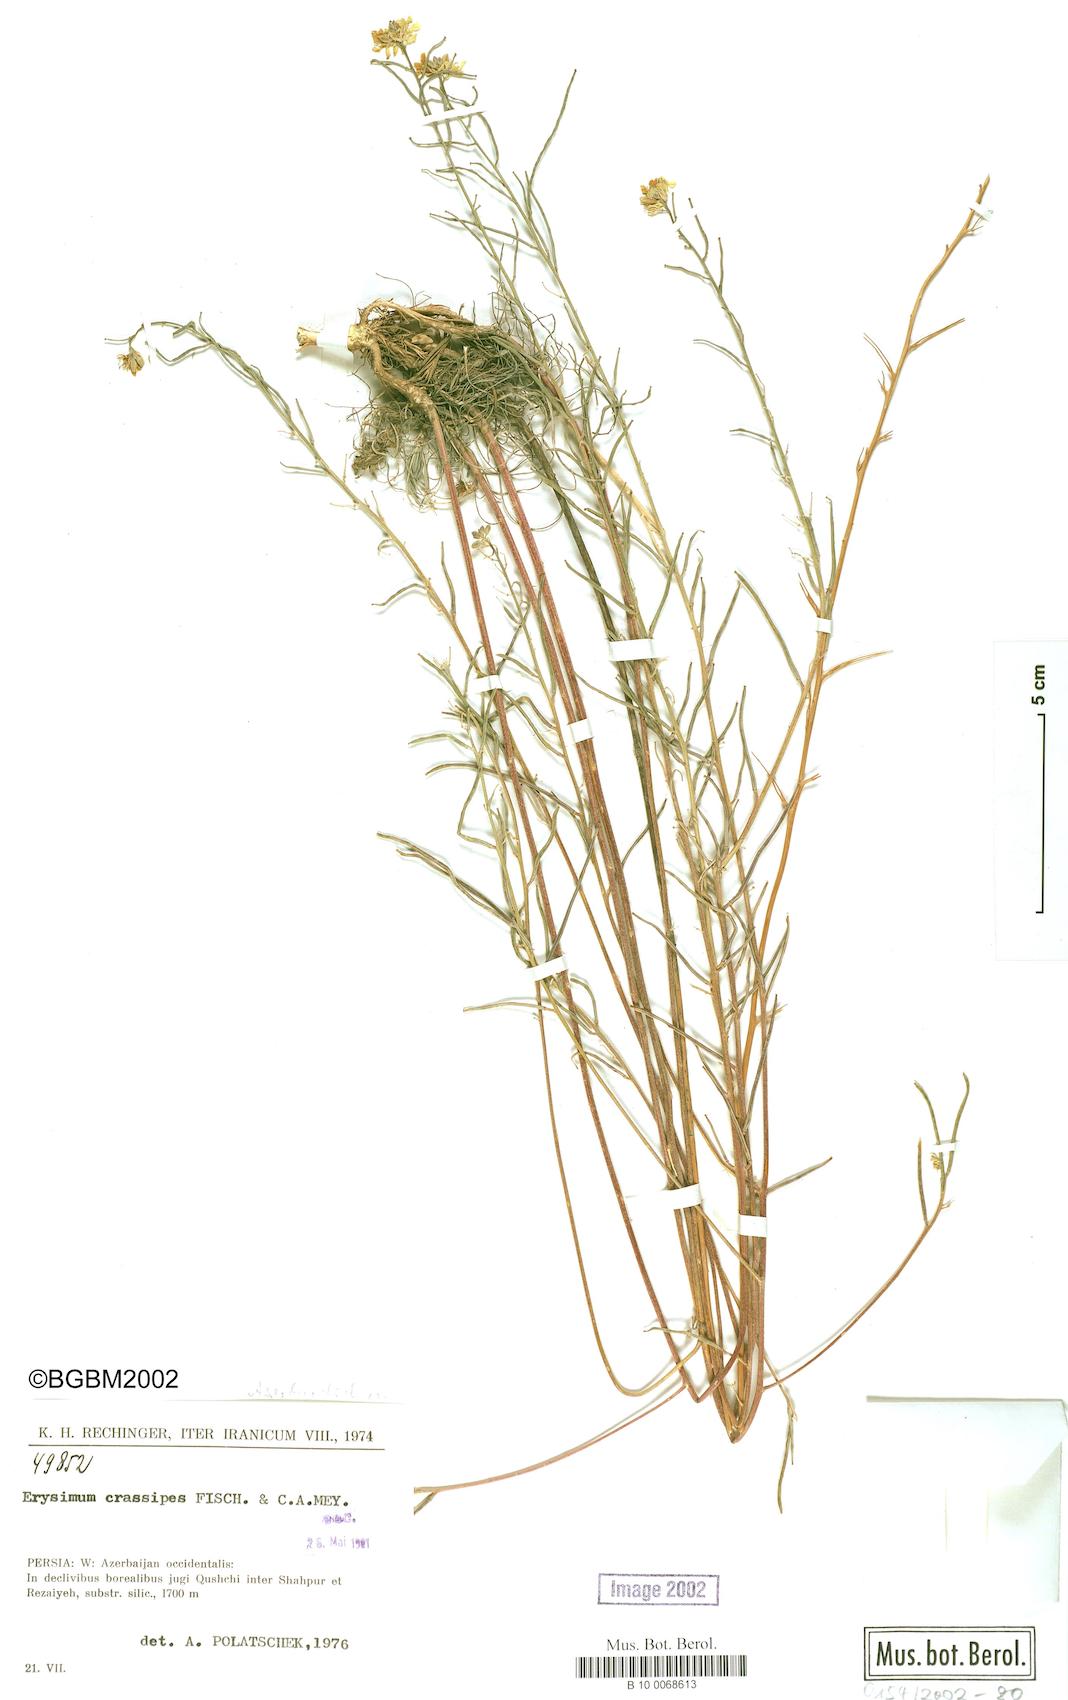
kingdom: Plantae
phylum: Tracheophyta
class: Magnoliopsida
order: Brassicales
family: Brassicaceae
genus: Erysimum
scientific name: Erysimum crassipes
